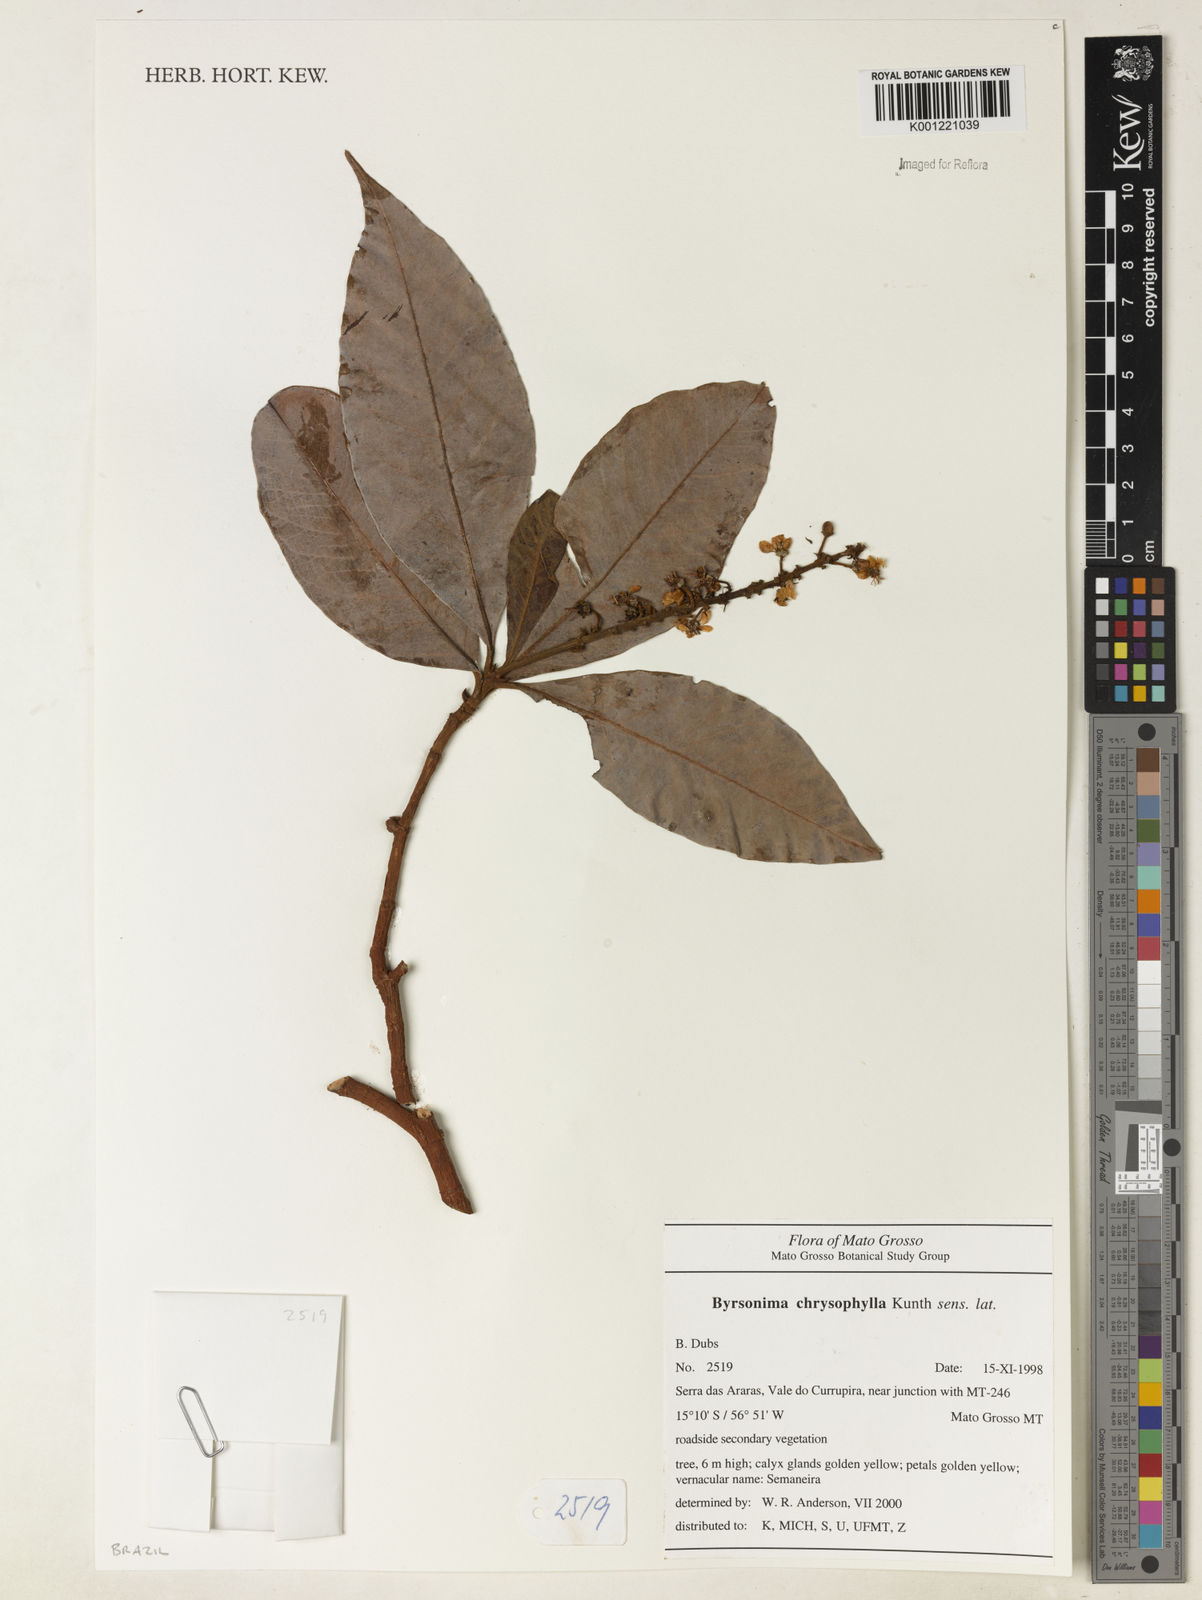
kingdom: Plantae
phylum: Tracheophyta
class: Magnoliopsida
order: Malpighiales
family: Malpighiaceae
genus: Byrsonima
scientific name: Byrsonima chrysophylla
